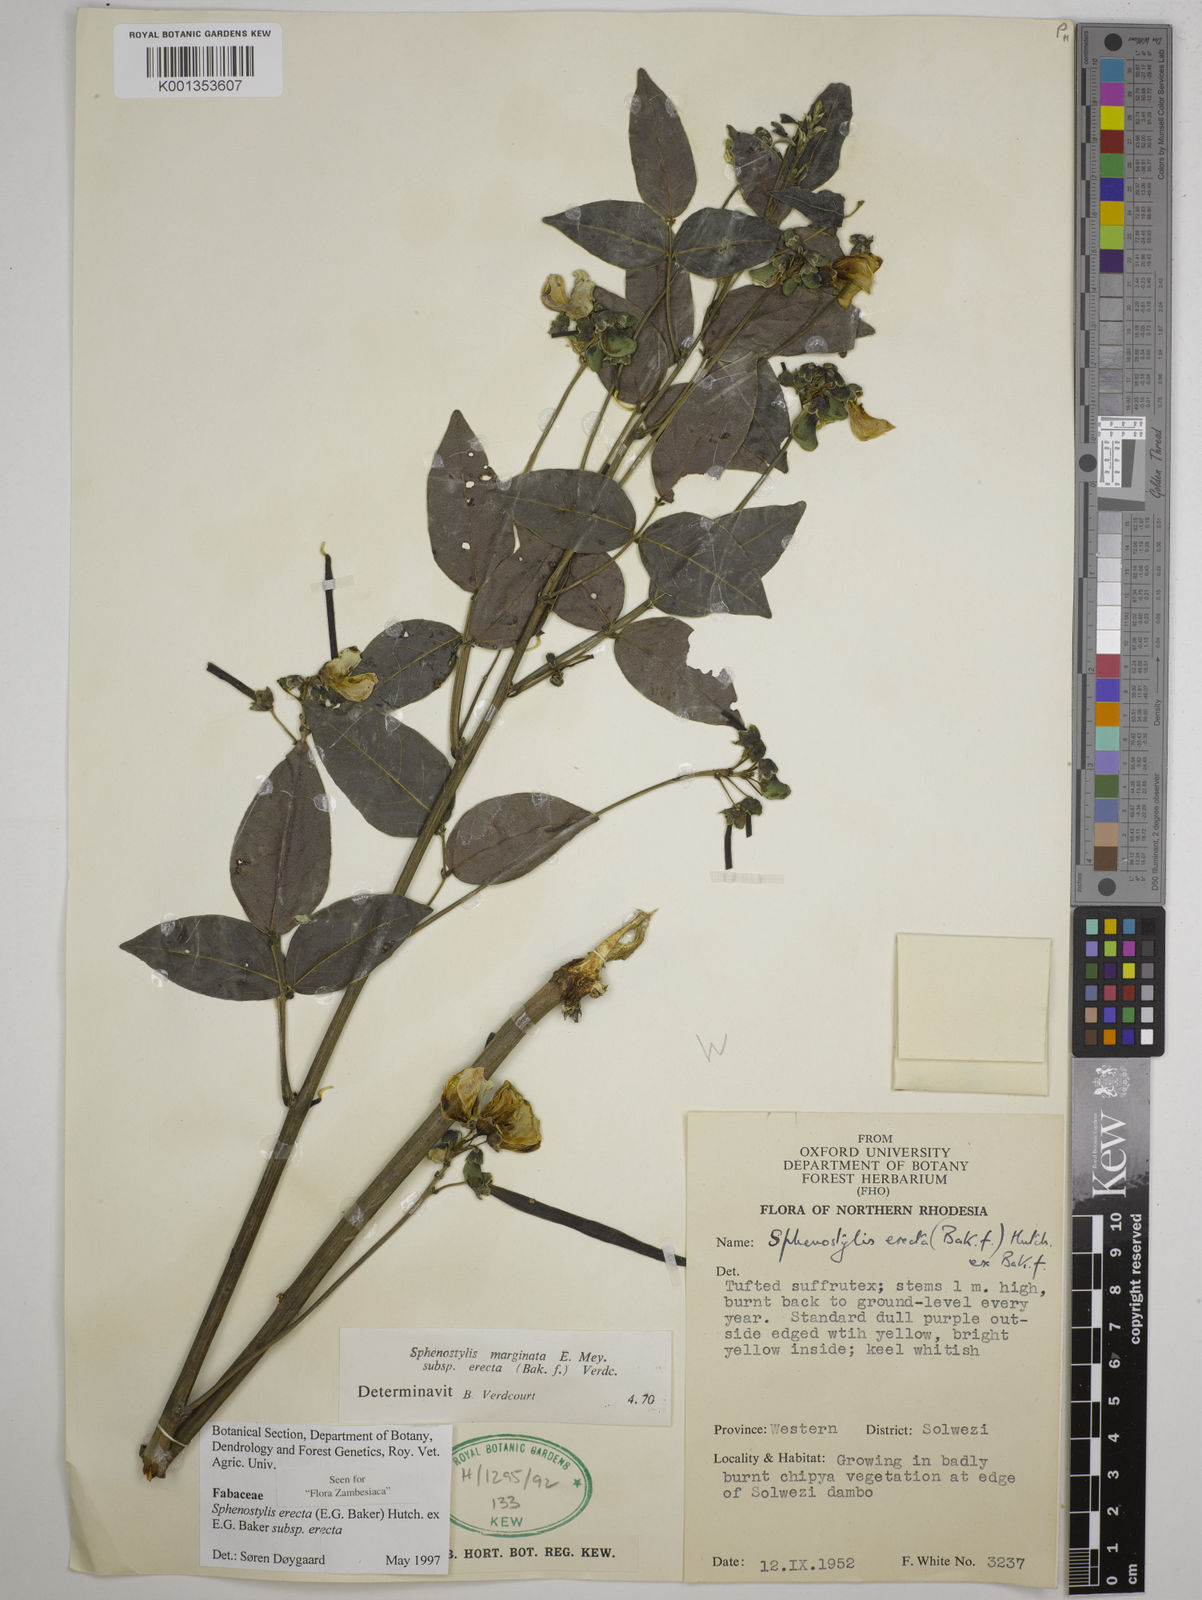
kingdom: Plantae
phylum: Tracheophyta
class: Magnoliopsida
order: Fabales
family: Fabaceae
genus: Sphenostylis
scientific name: Sphenostylis erecta
